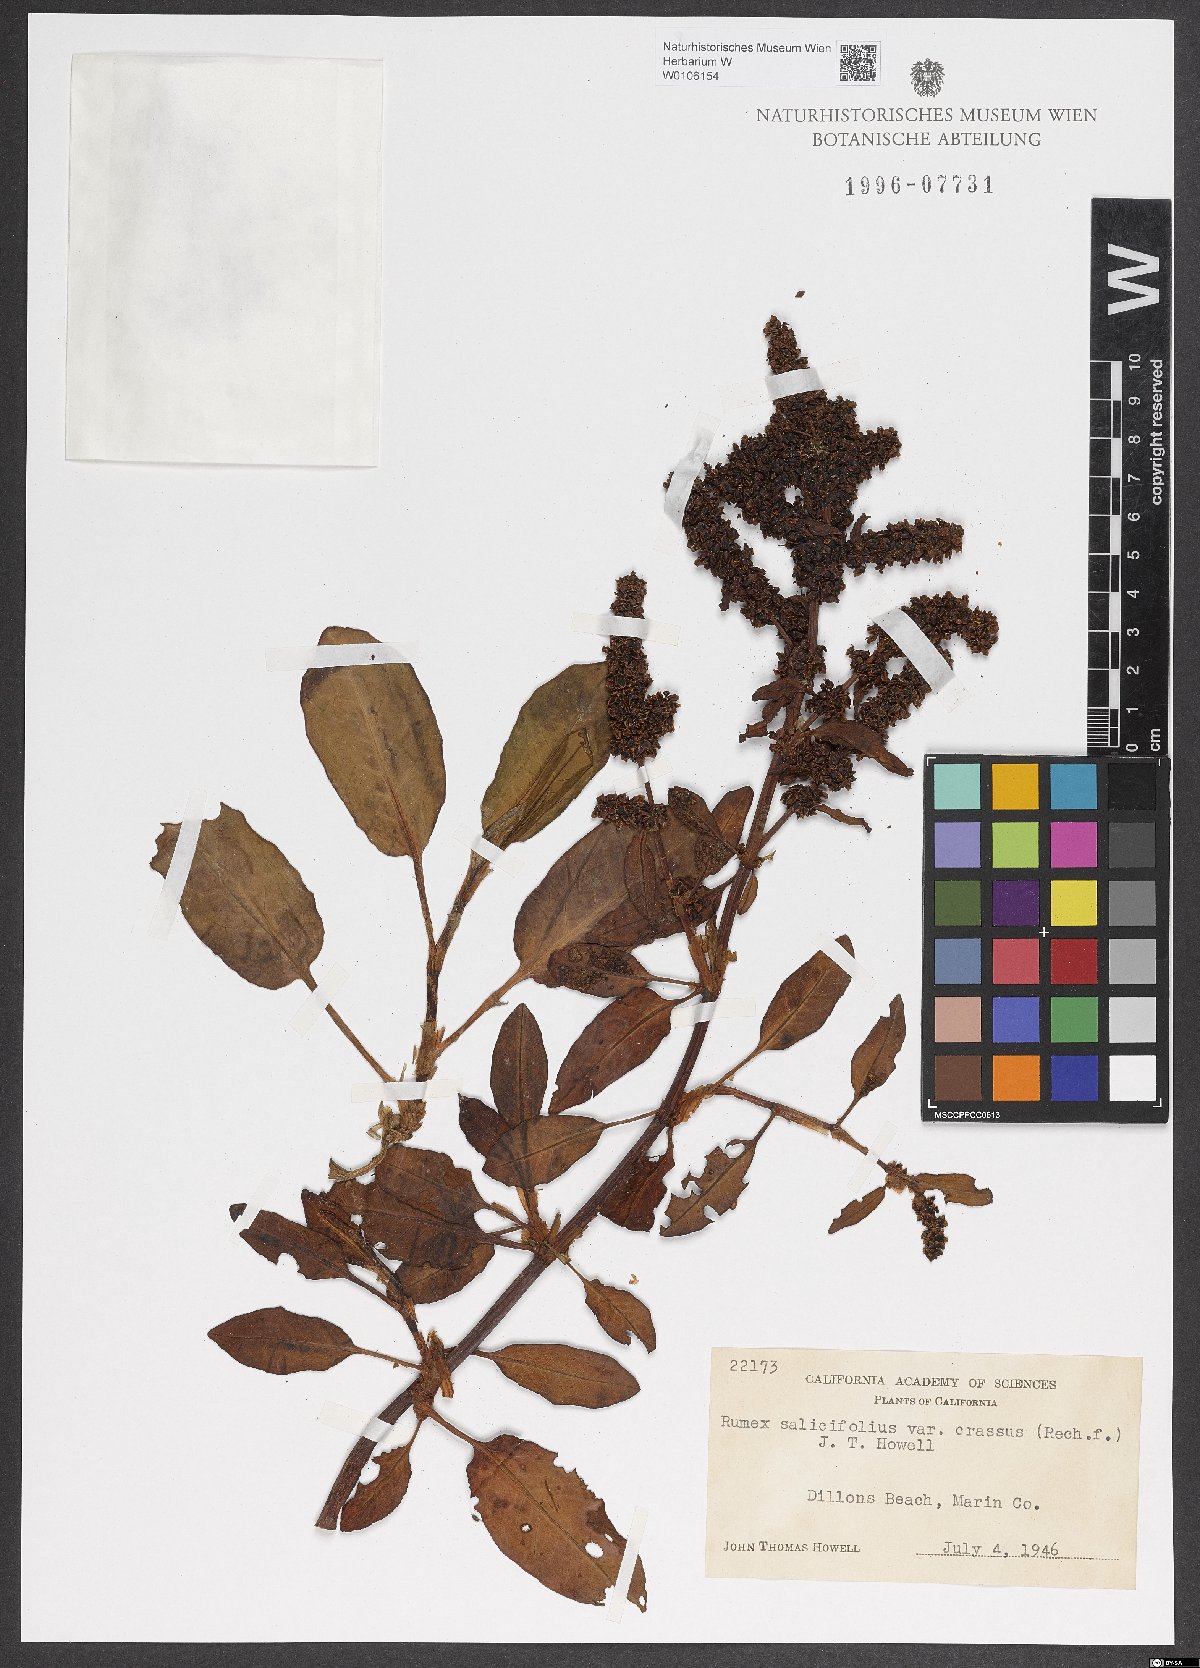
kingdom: Plantae
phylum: Tracheophyta
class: Magnoliopsida
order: Caryophyllales
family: Polygonaceae
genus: Rumex
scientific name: Rumex crassus
